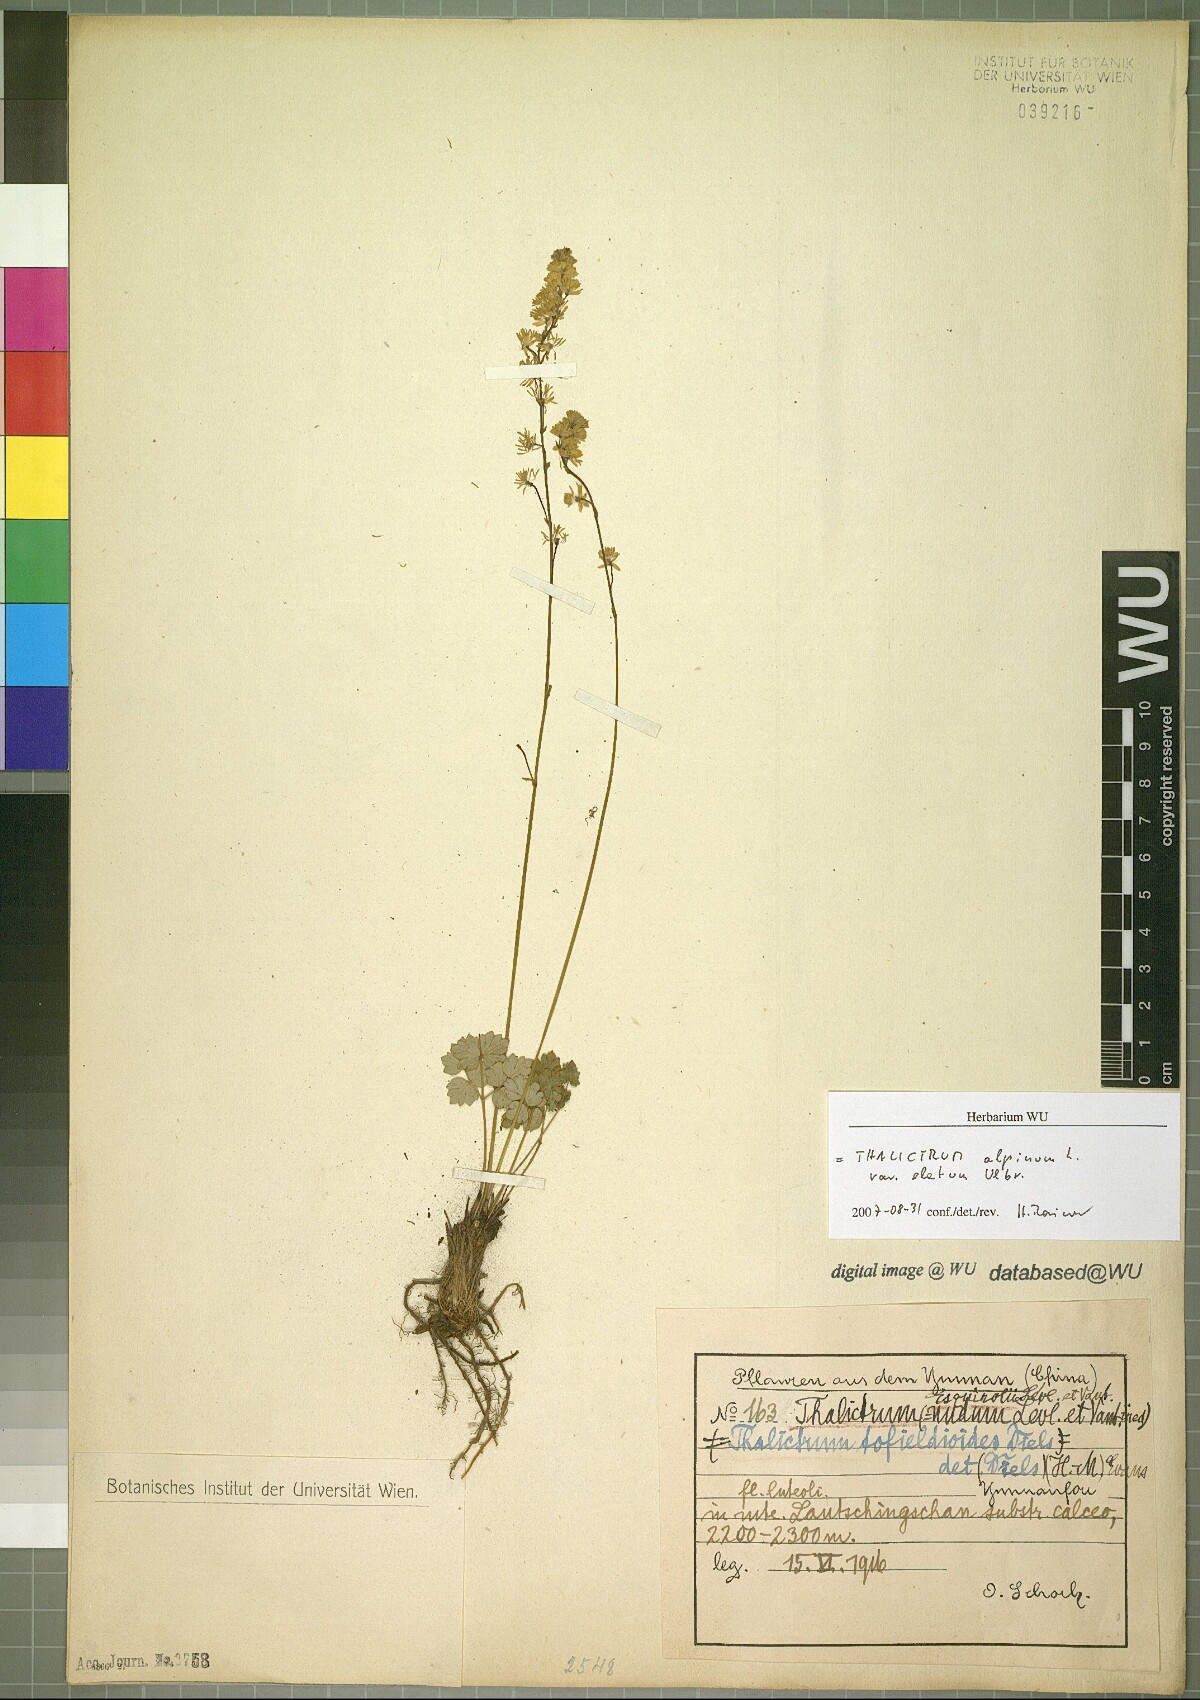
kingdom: Plantae
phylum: Tracheophyta
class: Magnoliopsida
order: Ranunculales
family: Ranunculaceae
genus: Thalictrum
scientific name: Thalictrum alpinum
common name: Alpine meadow-rue
